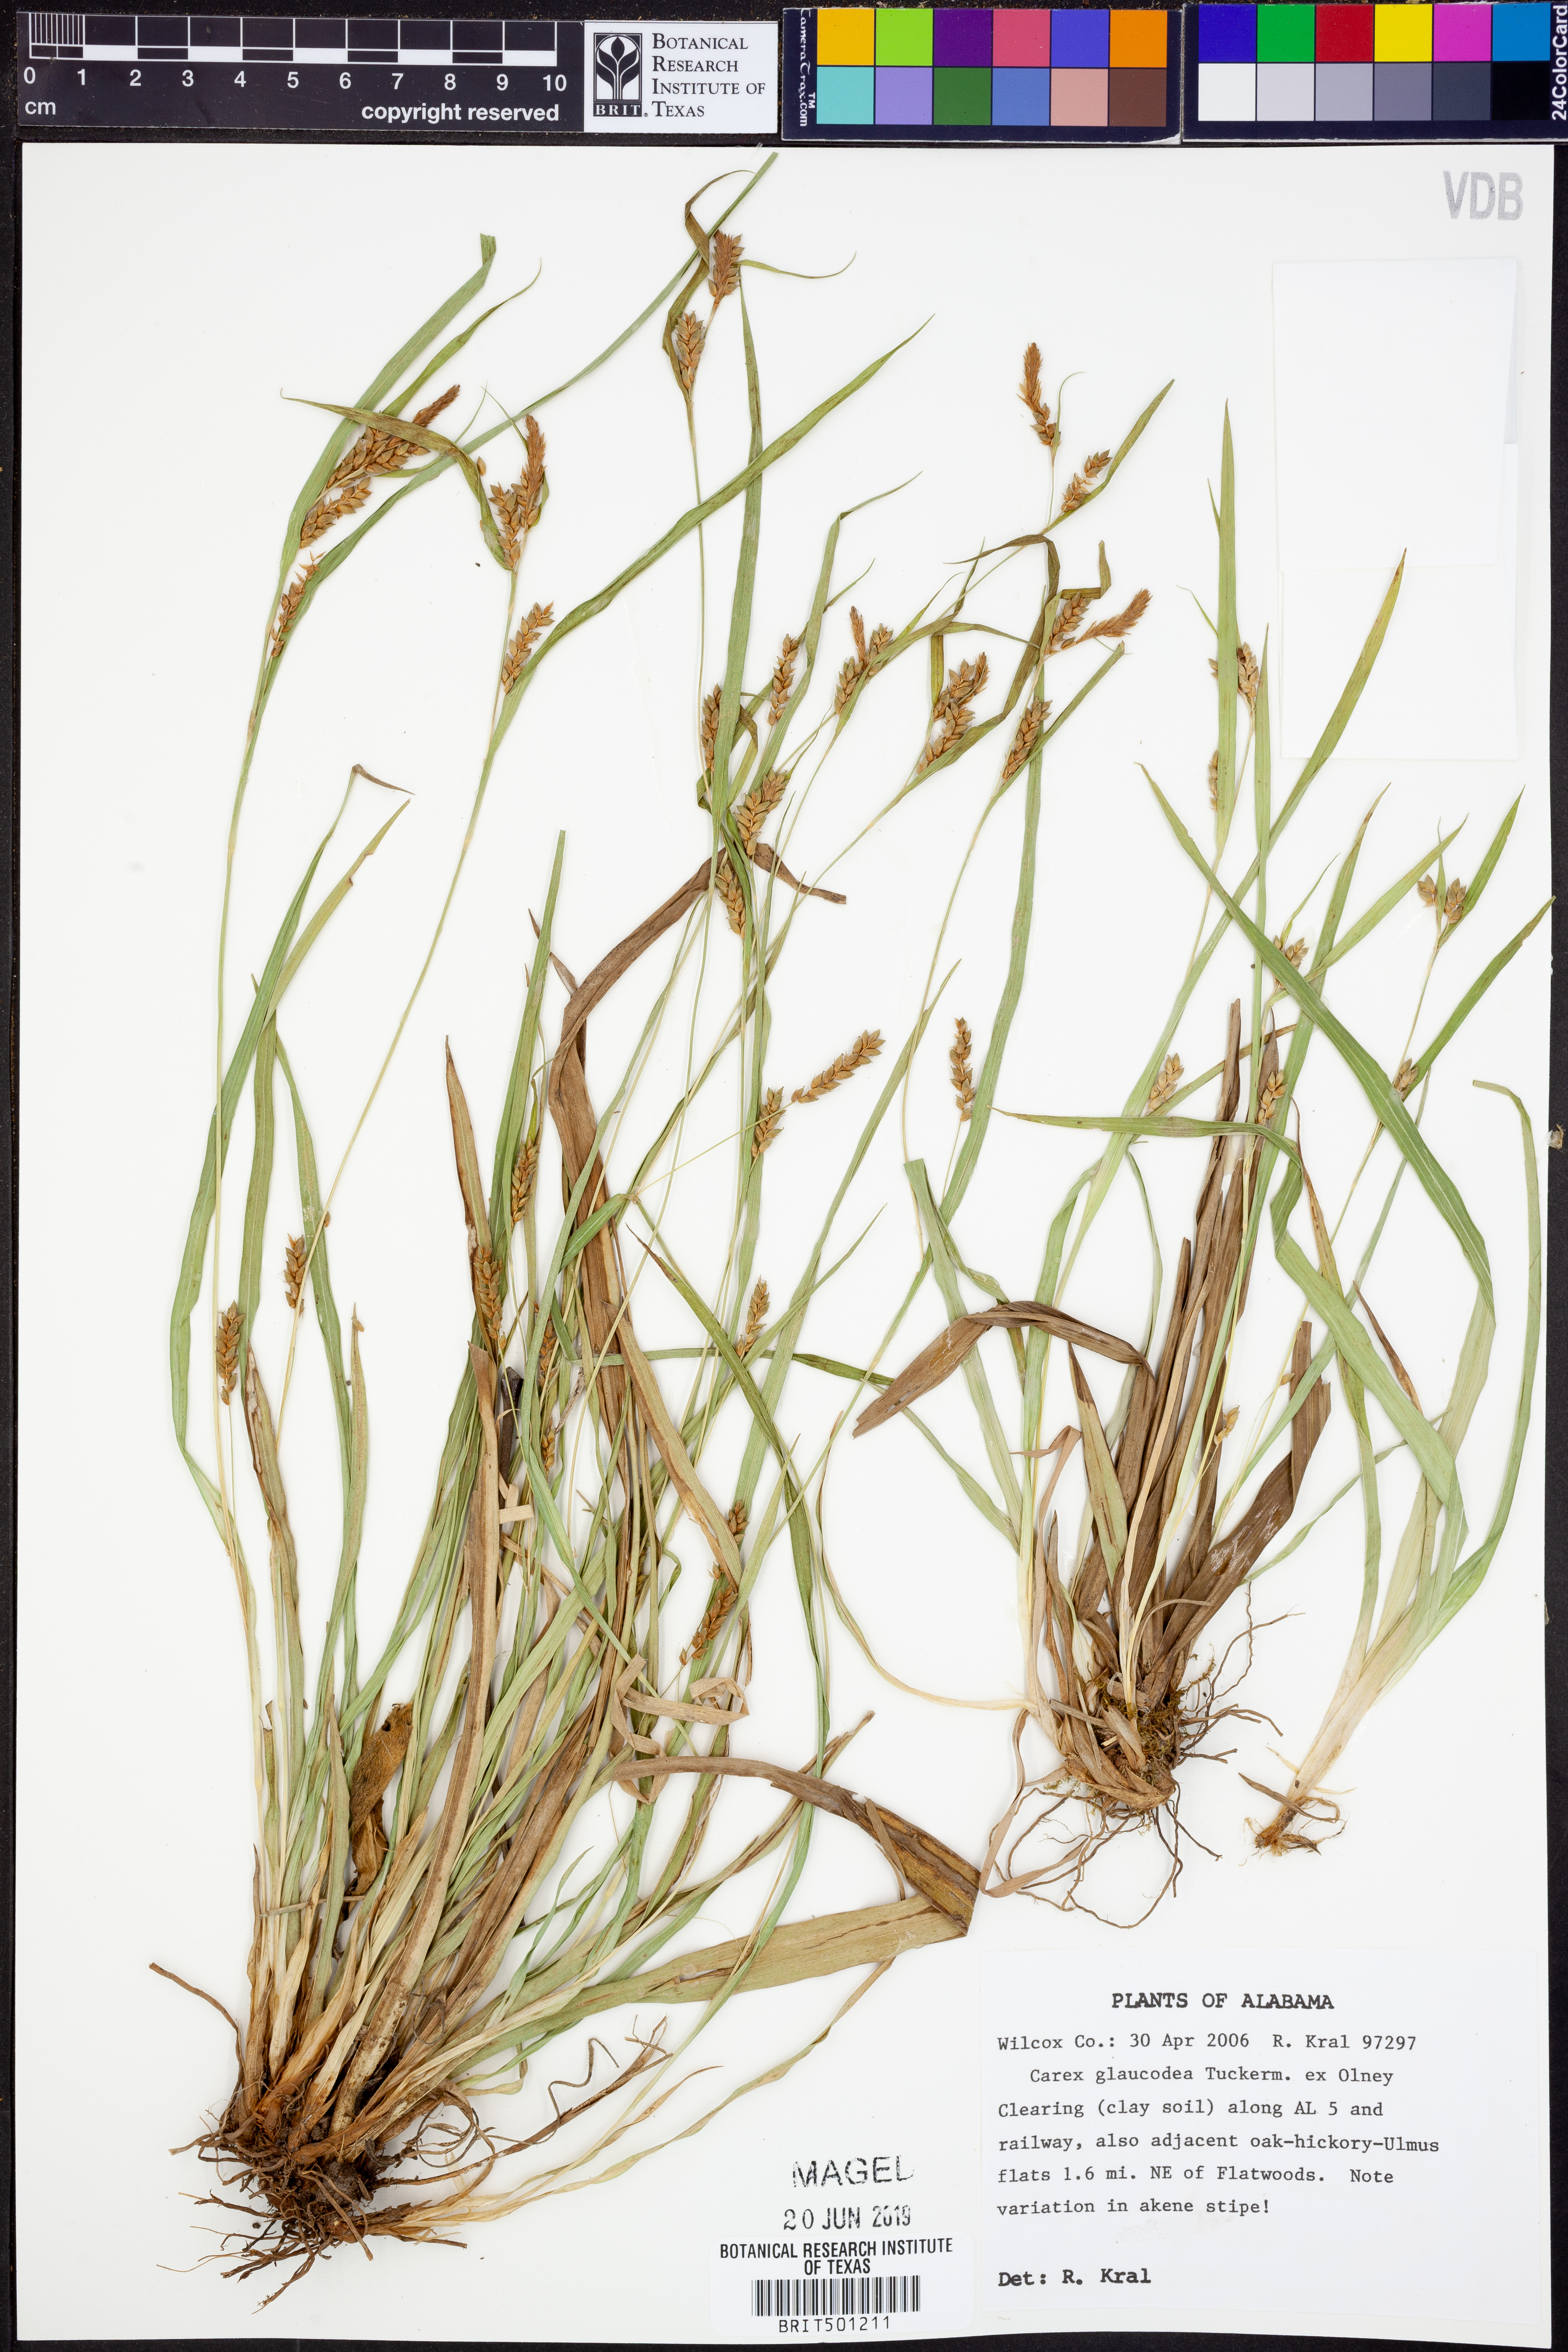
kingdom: Plantae
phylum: Tracheophyta
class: Liliopsida
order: Poales
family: Cyperaceae
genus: Carex
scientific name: Carex glaucodea
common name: Blue sedge
